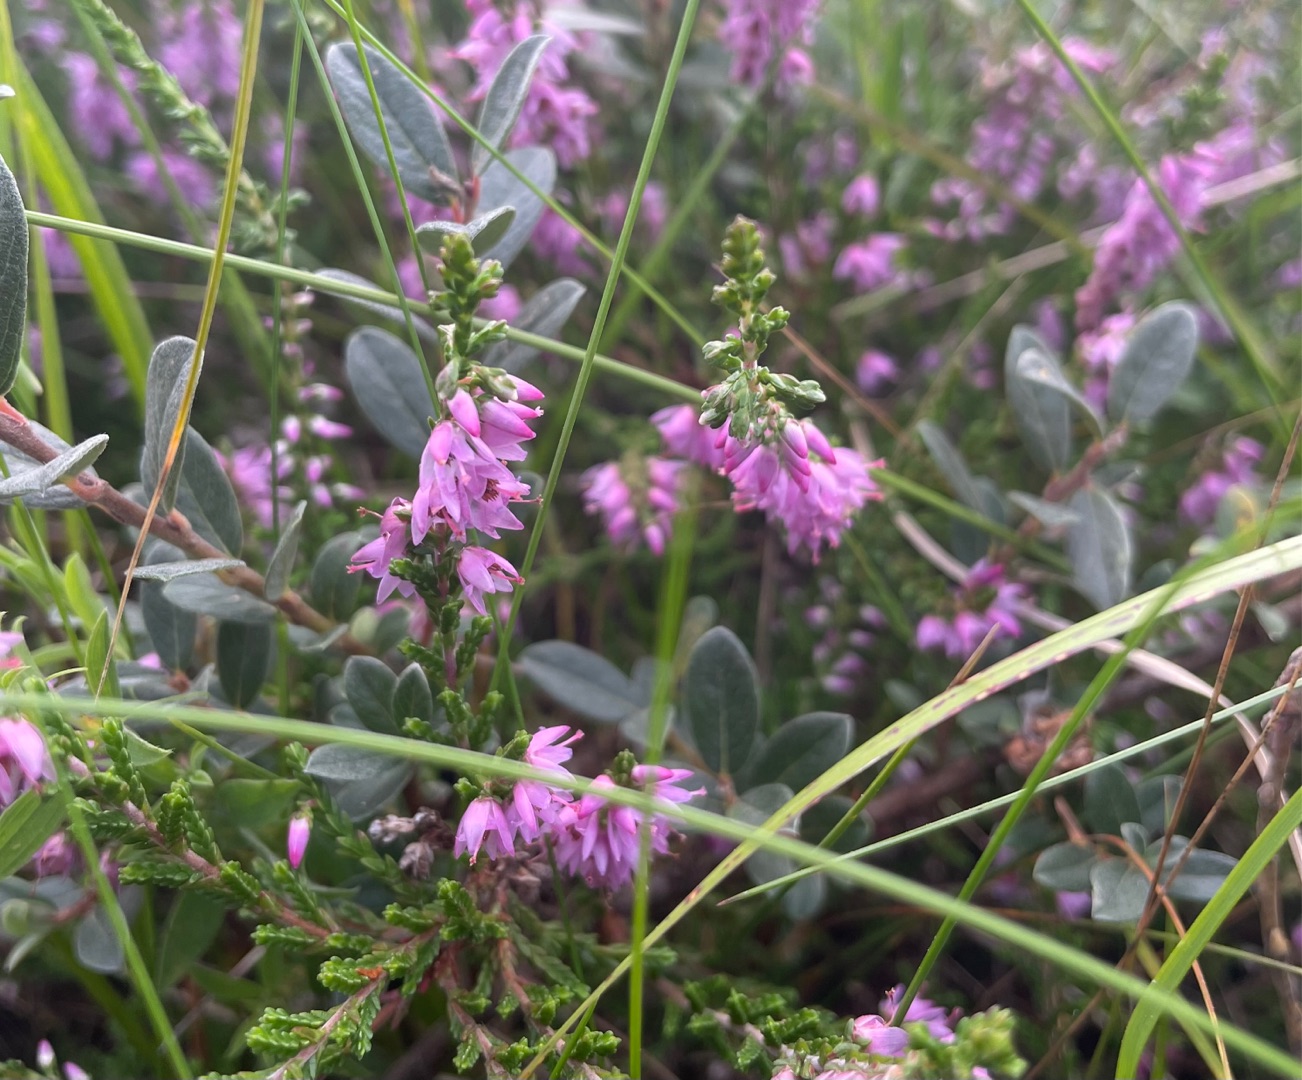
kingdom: Plantae
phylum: Tracheophyta
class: Magnoliopsida
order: Ericales
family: Ericaceae
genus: Calluna
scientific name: Calluna vulgaris
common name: Hedelyng
